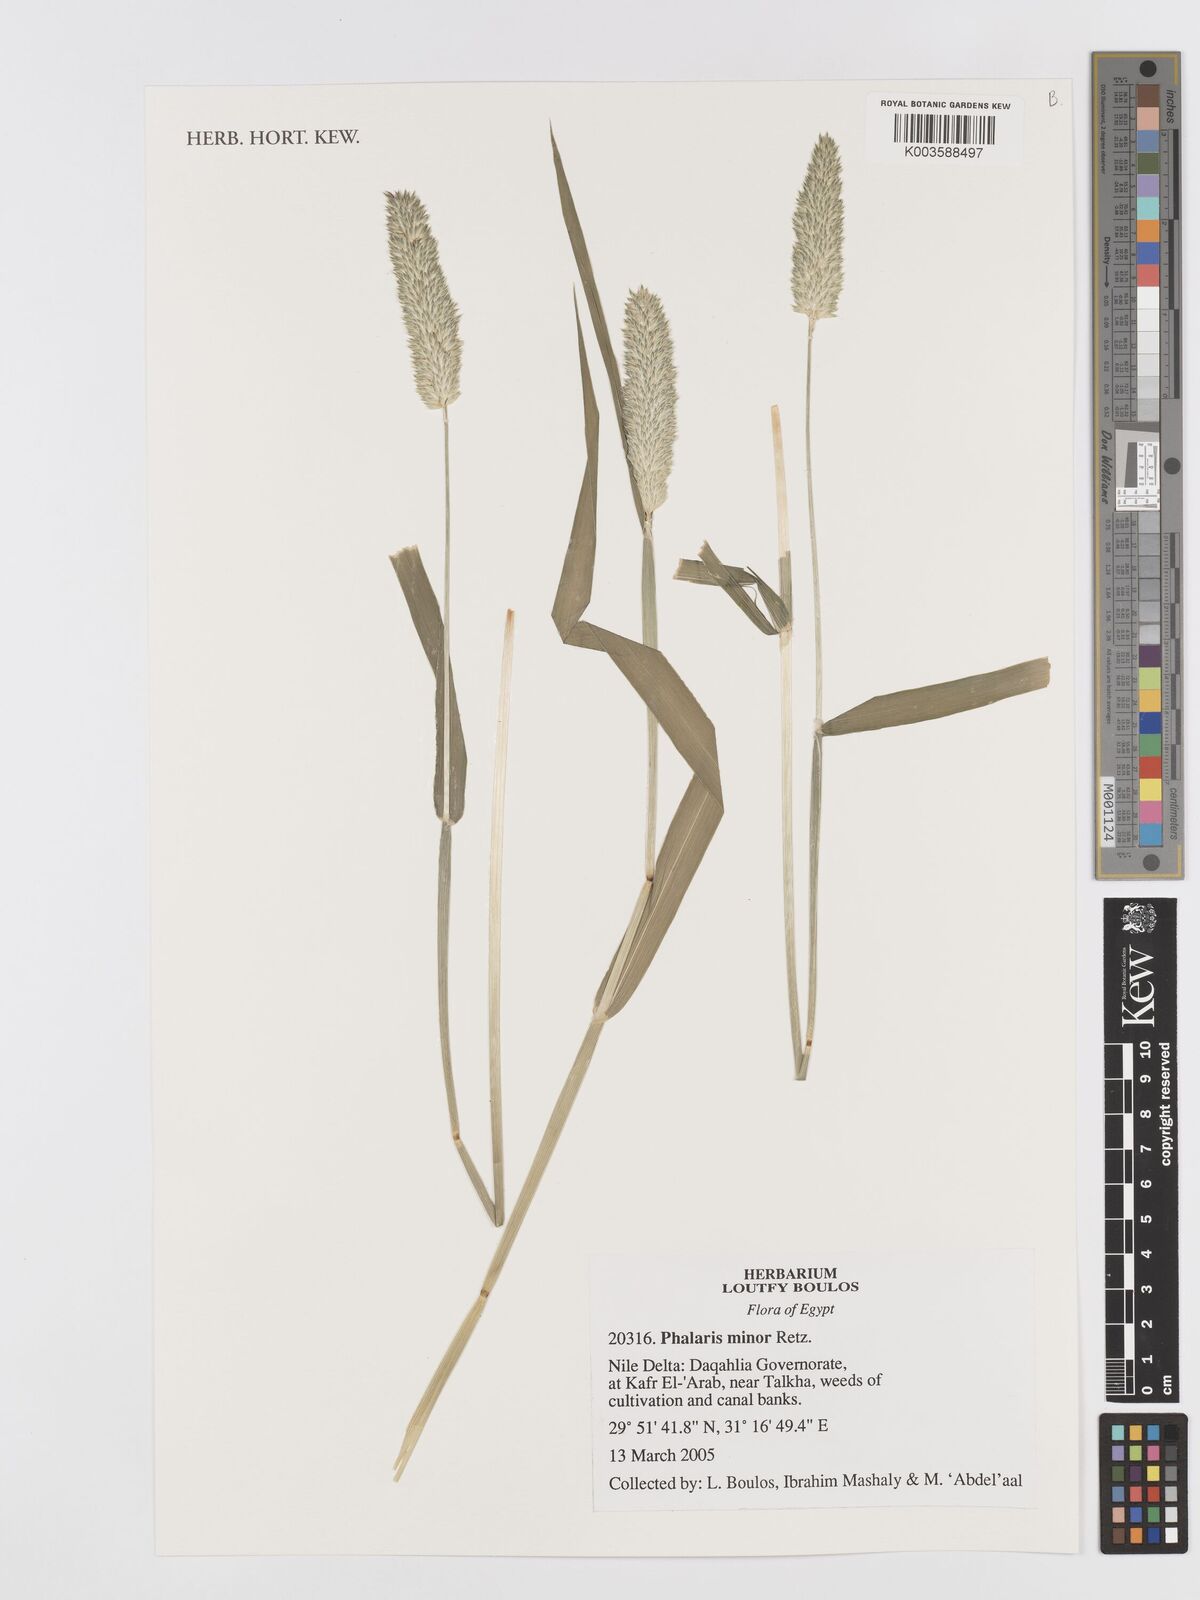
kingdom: Plantae
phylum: Tracheophyta
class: Liliopsida
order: Poales
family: Poaceae
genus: Phalaris
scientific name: Phalaris minor
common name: Littleseed canarygrass
